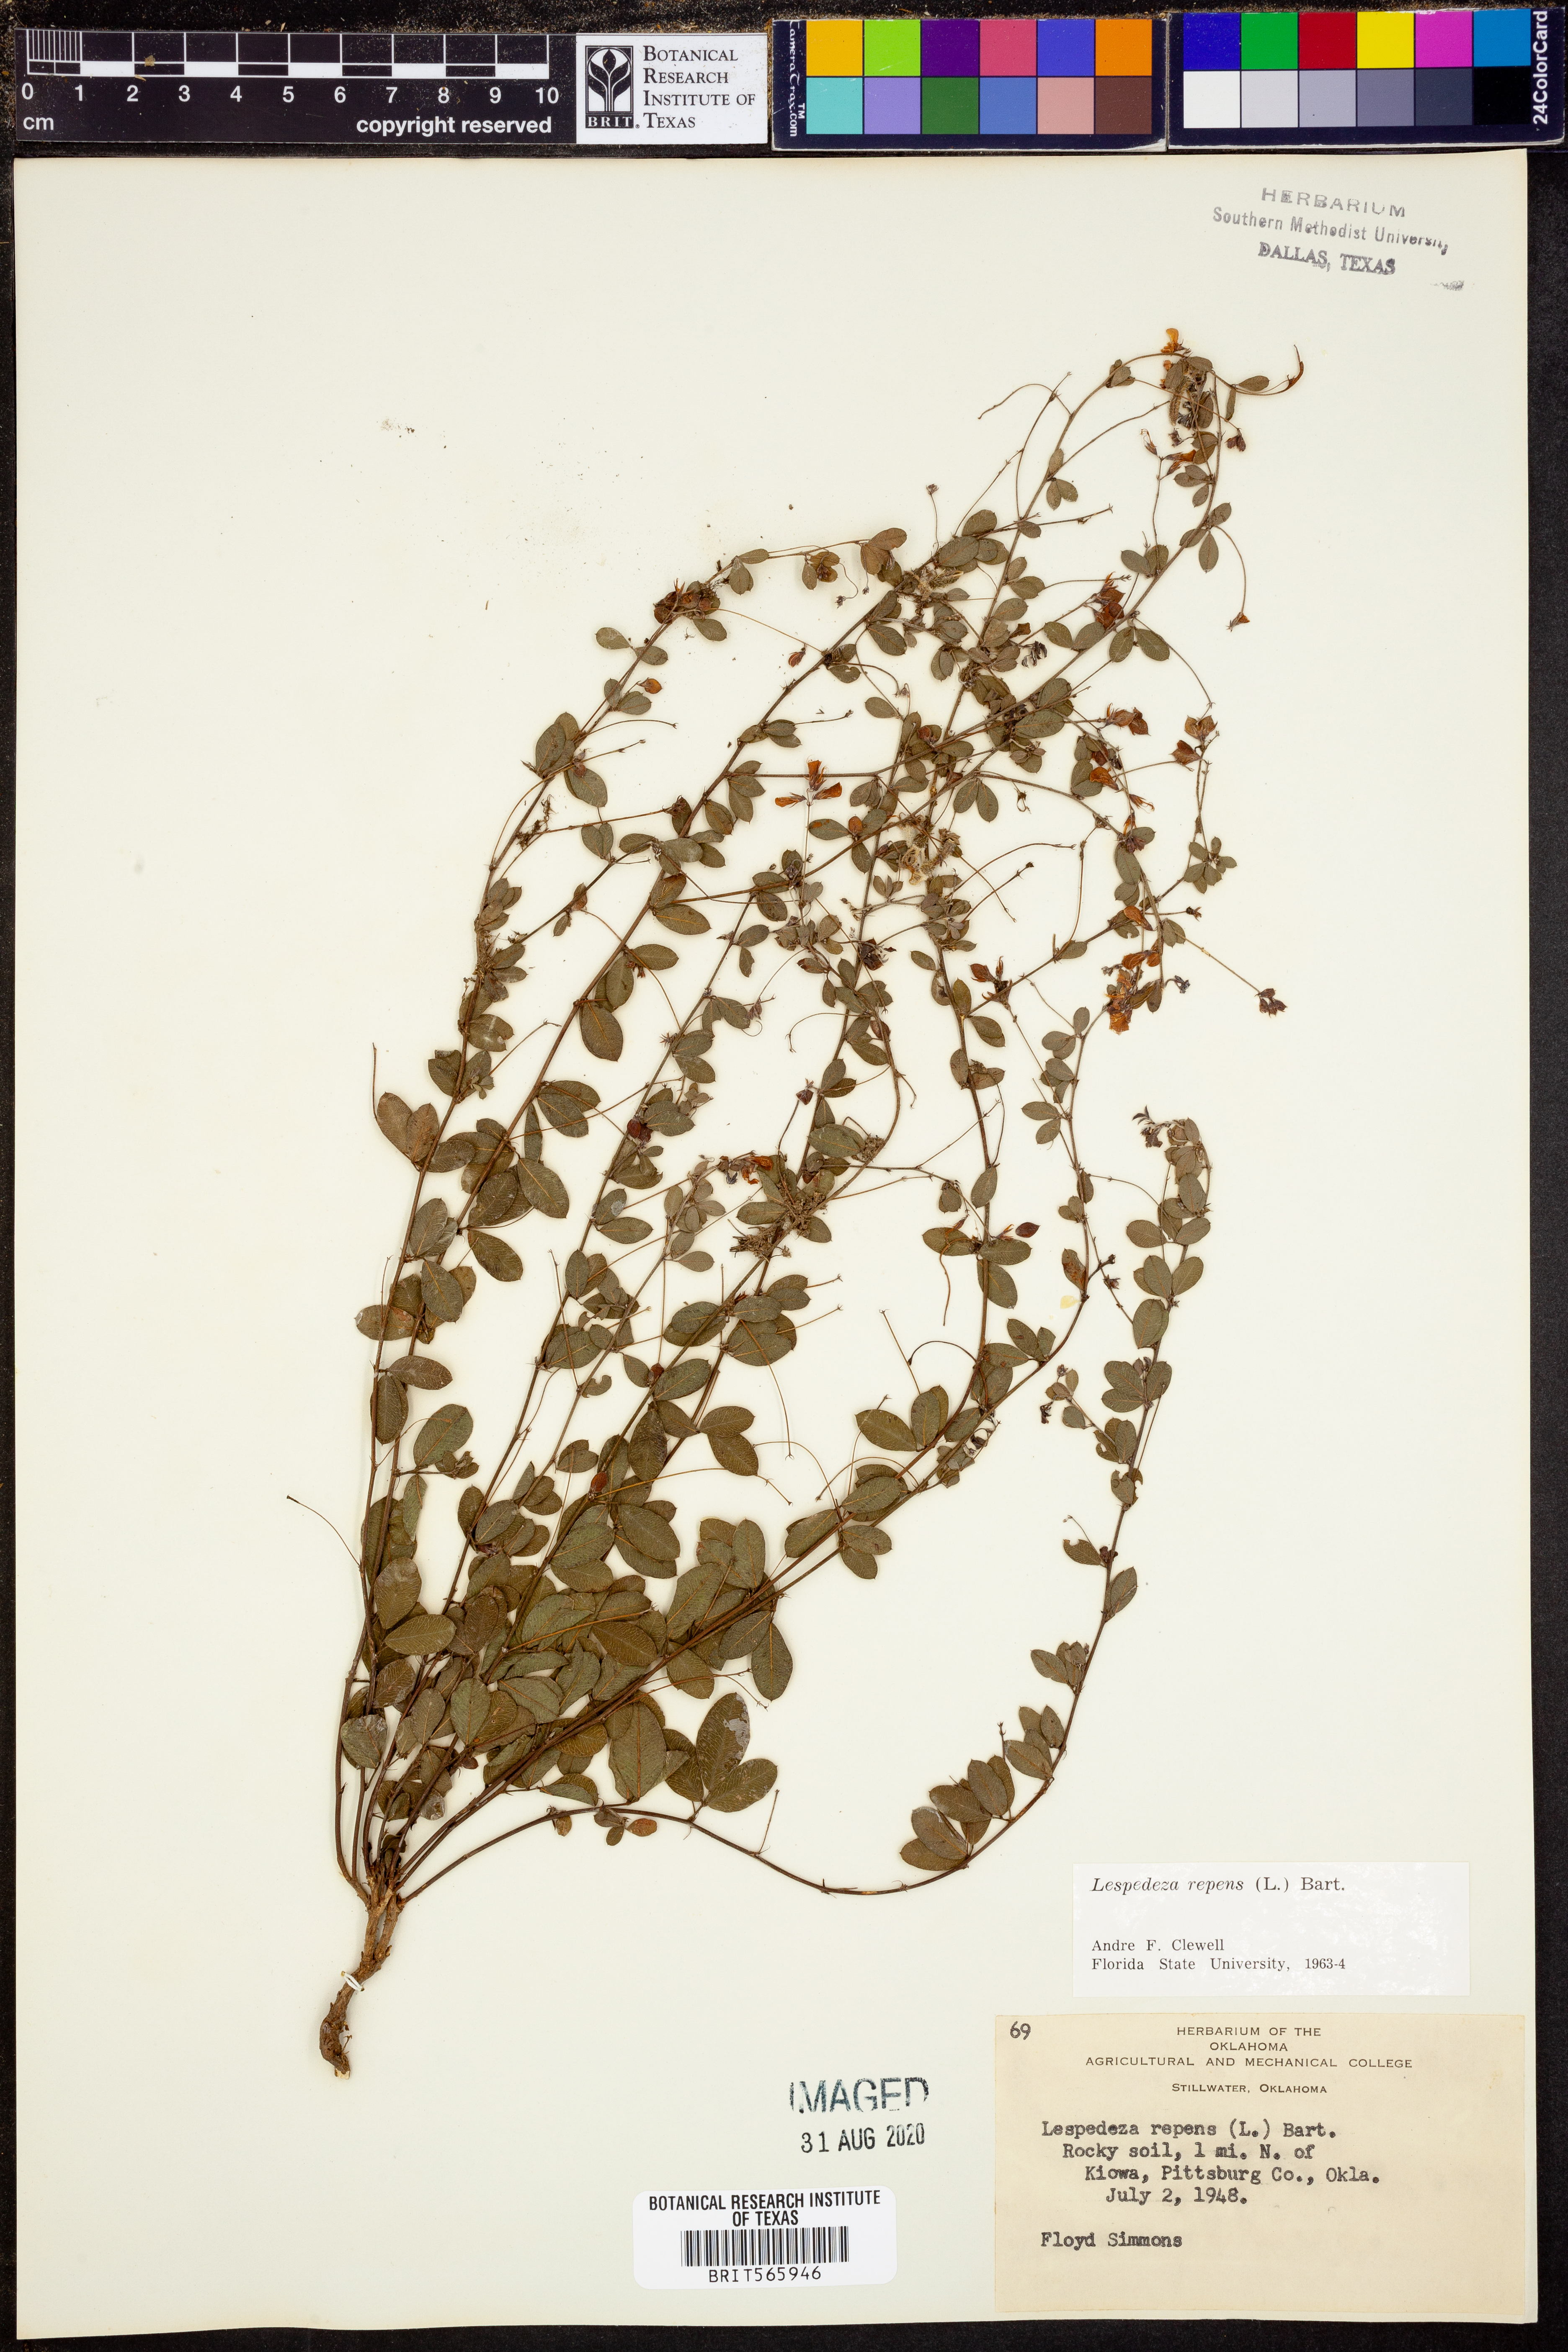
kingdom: Plantae
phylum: Tracheophyta
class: Magnoliopsida
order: Fabales
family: Fabaceae
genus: Lespedeza
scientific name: Lespedeza repens
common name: Creeping bush-clover
